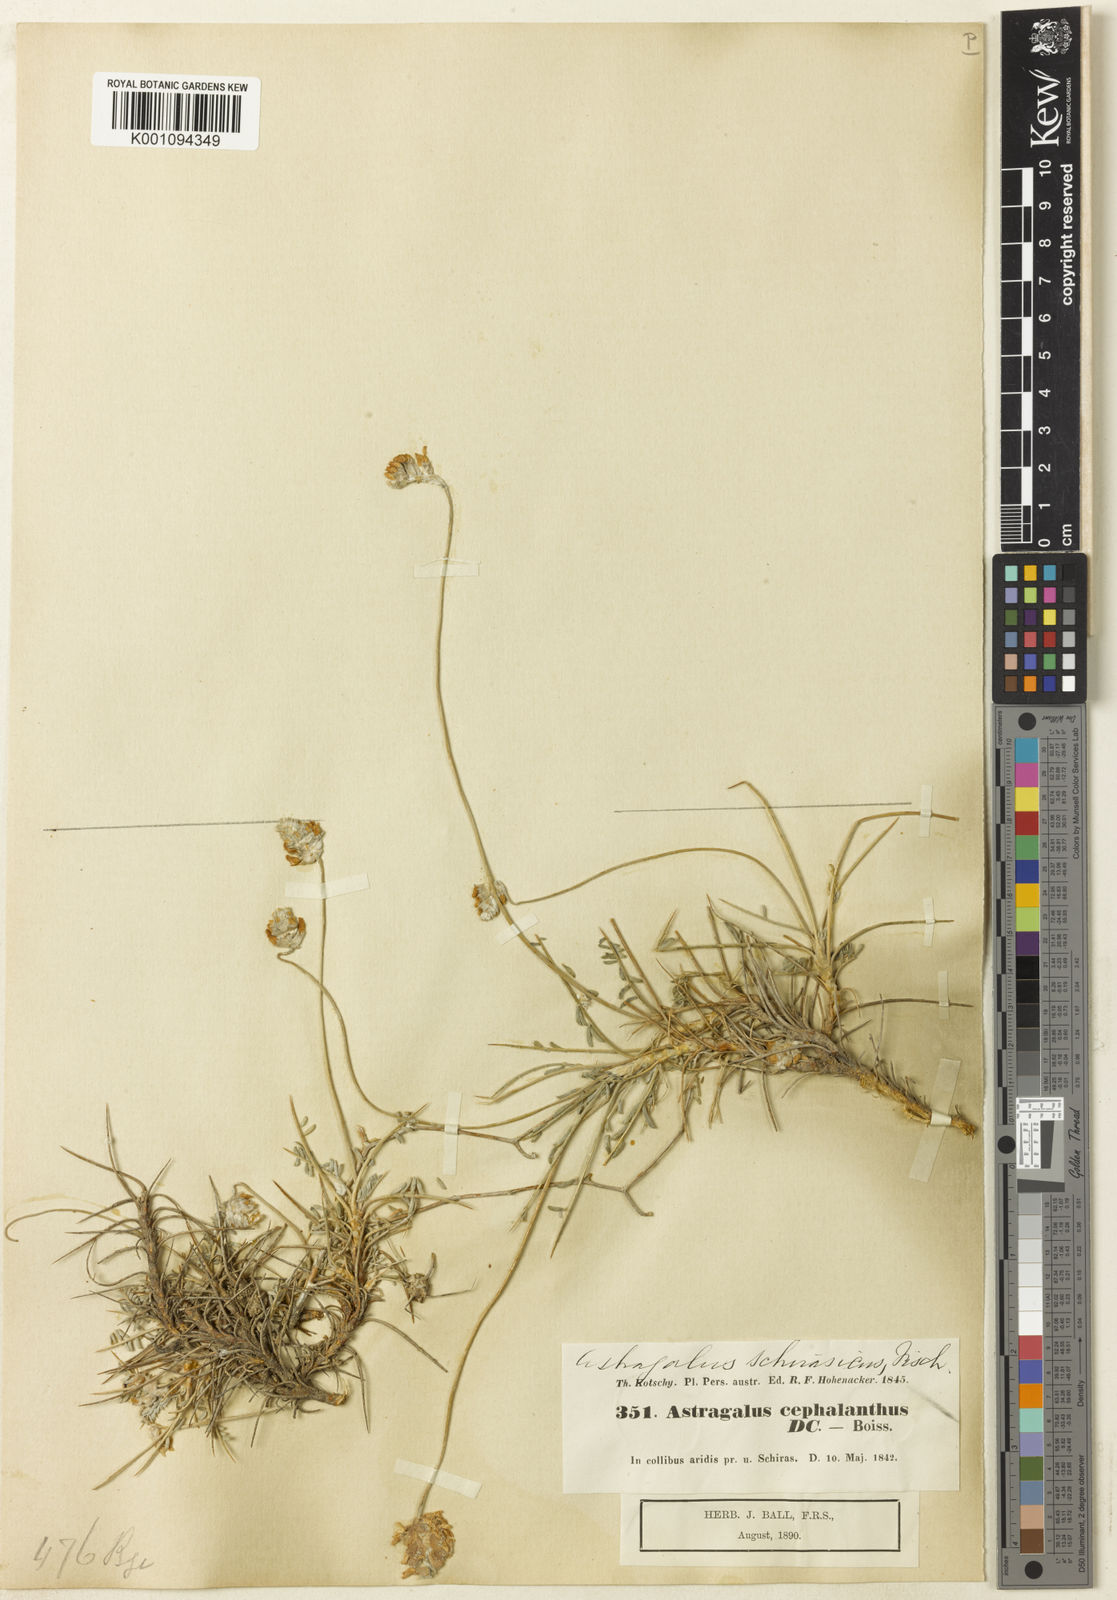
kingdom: Plantae
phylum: Tracheophyta
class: Magnoliopsida
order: Fabales
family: Fabaceae
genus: Astragalus
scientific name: Astragalus
